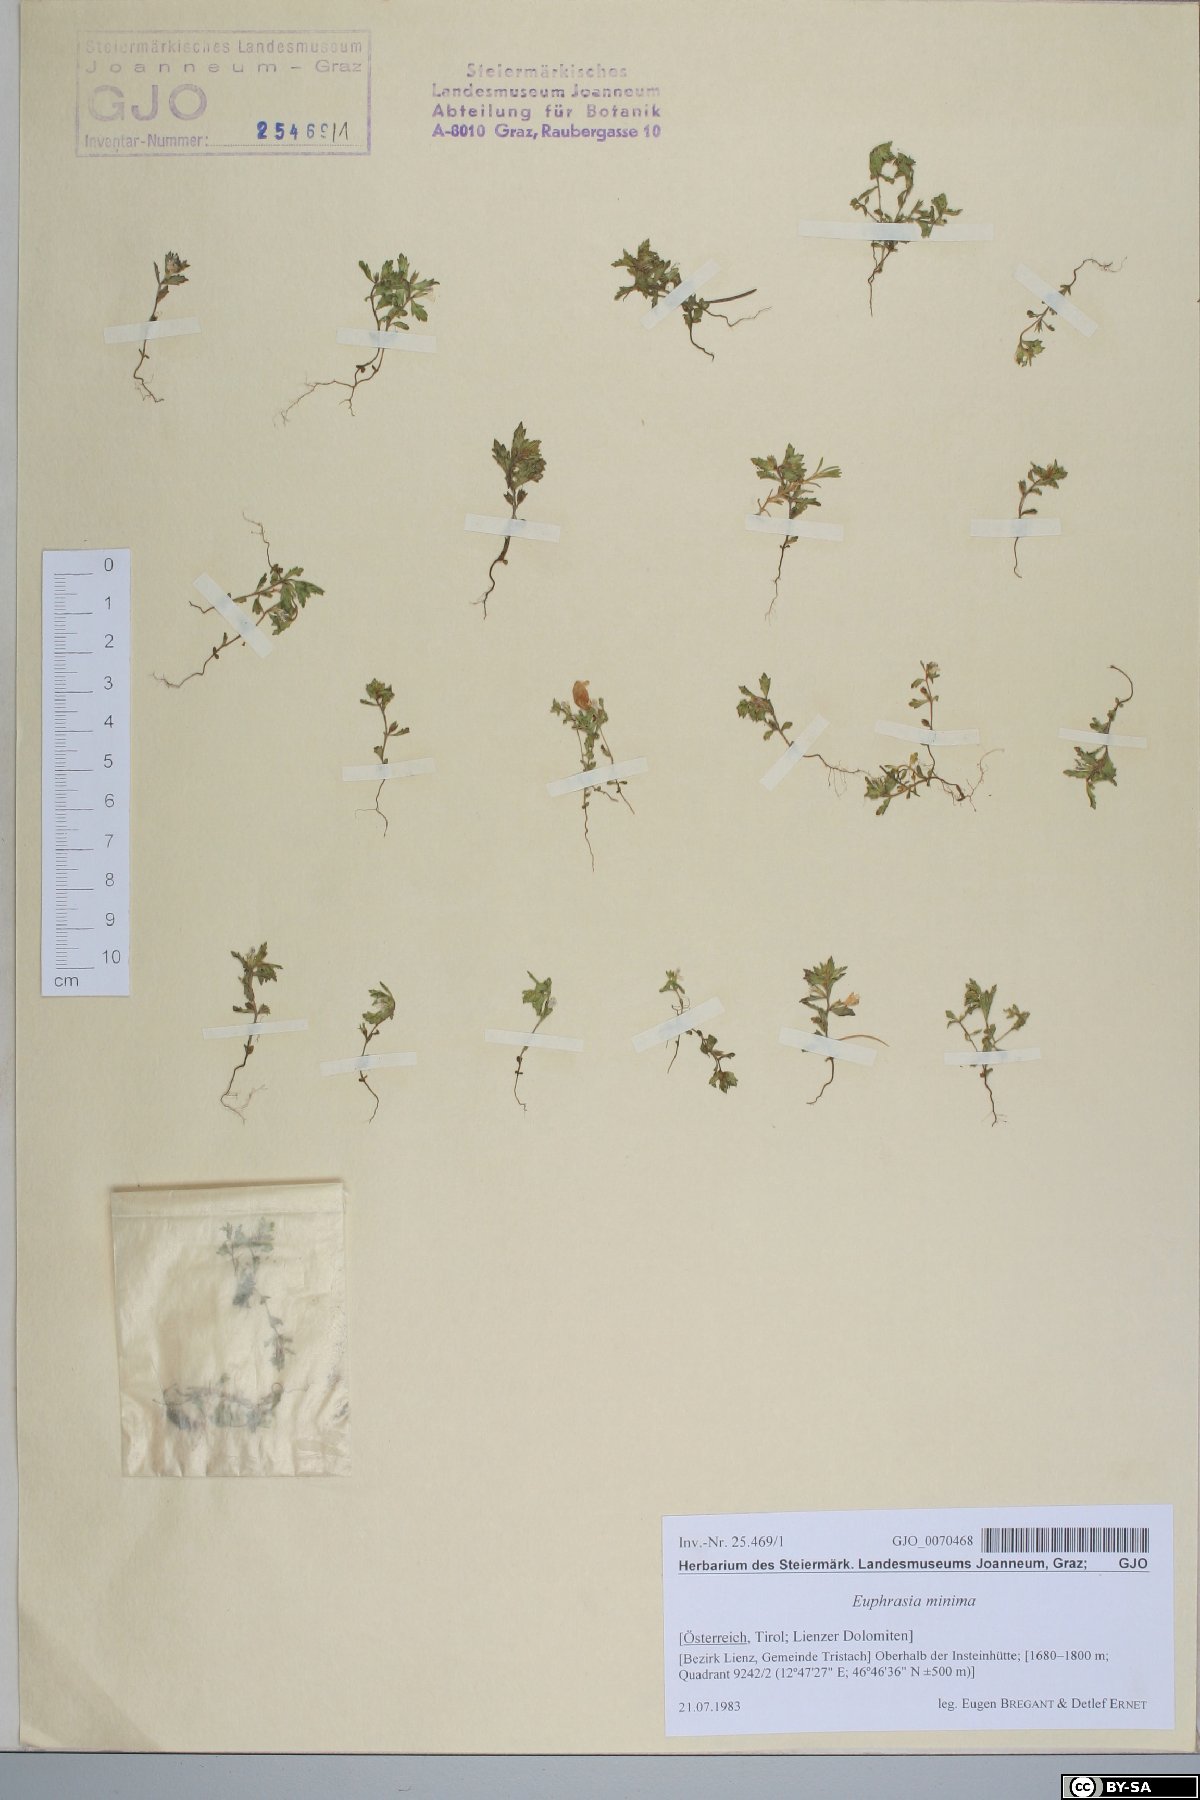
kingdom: Plantae
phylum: Tracheophyta
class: Magnoliopsida
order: Lamiales
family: Orobanchaceae
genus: Euphrasia
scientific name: Euphrasia minima
